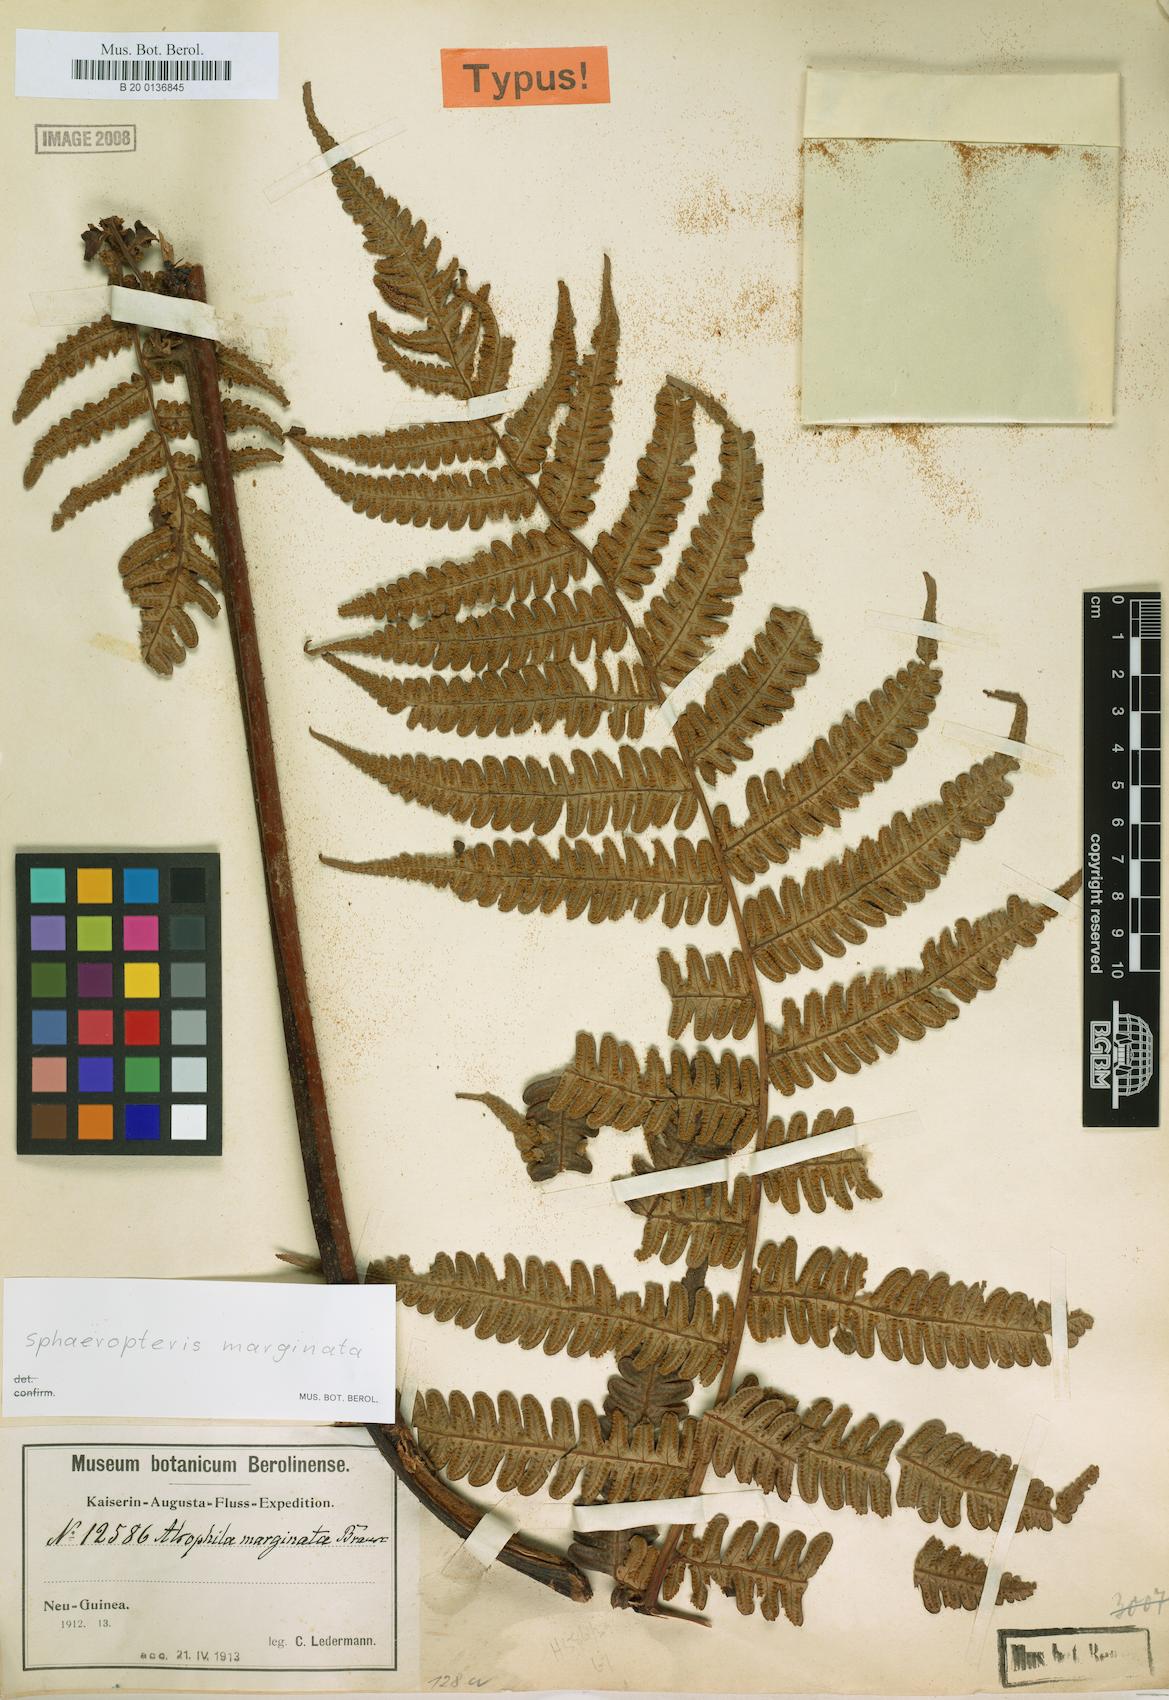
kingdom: Plantae
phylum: Tracheophyta
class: Polypodiopsida
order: Cyatheales
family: Cyatheaceae
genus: Sphaeropteris
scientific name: Sphaeropteris marginata
